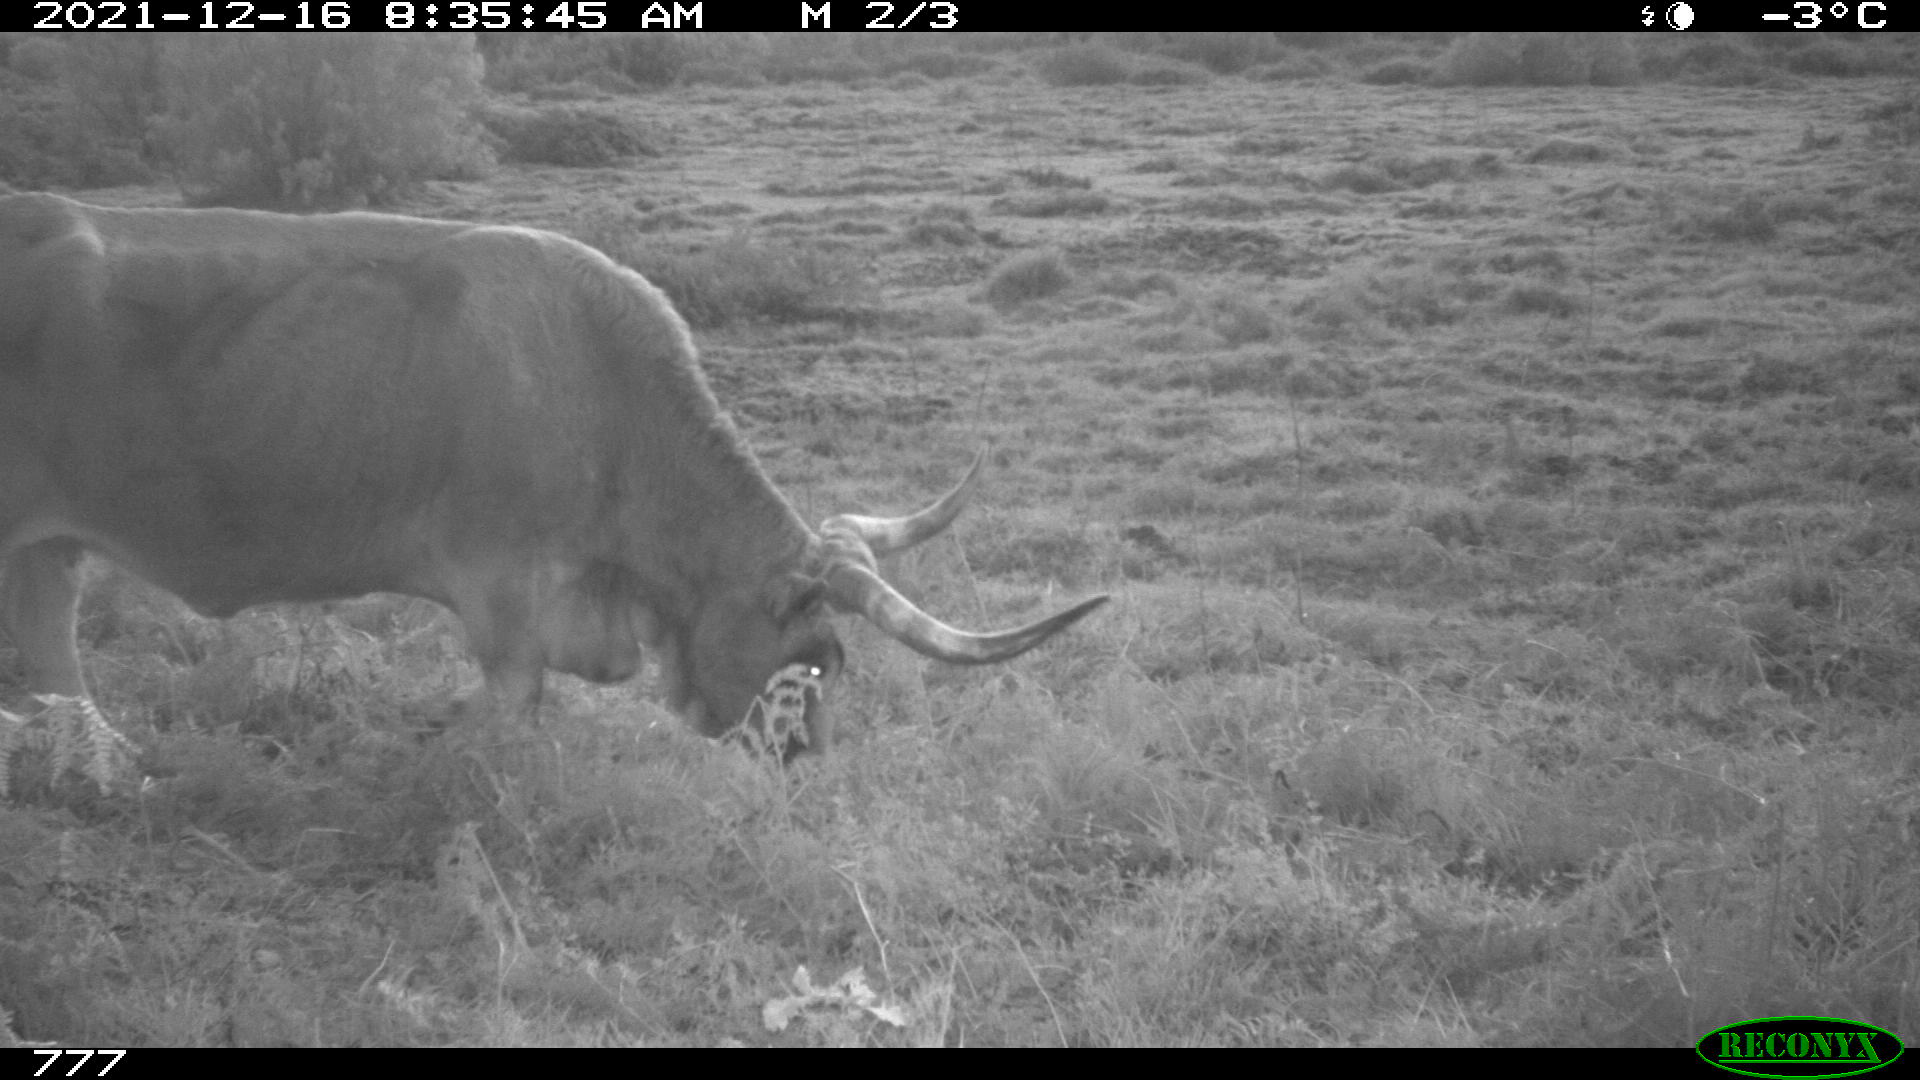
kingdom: Animalia
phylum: Chordata
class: Mammalia
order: Artiodactyla
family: Bovidae
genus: Bos
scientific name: Bos taurus
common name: Domesticated cattle
